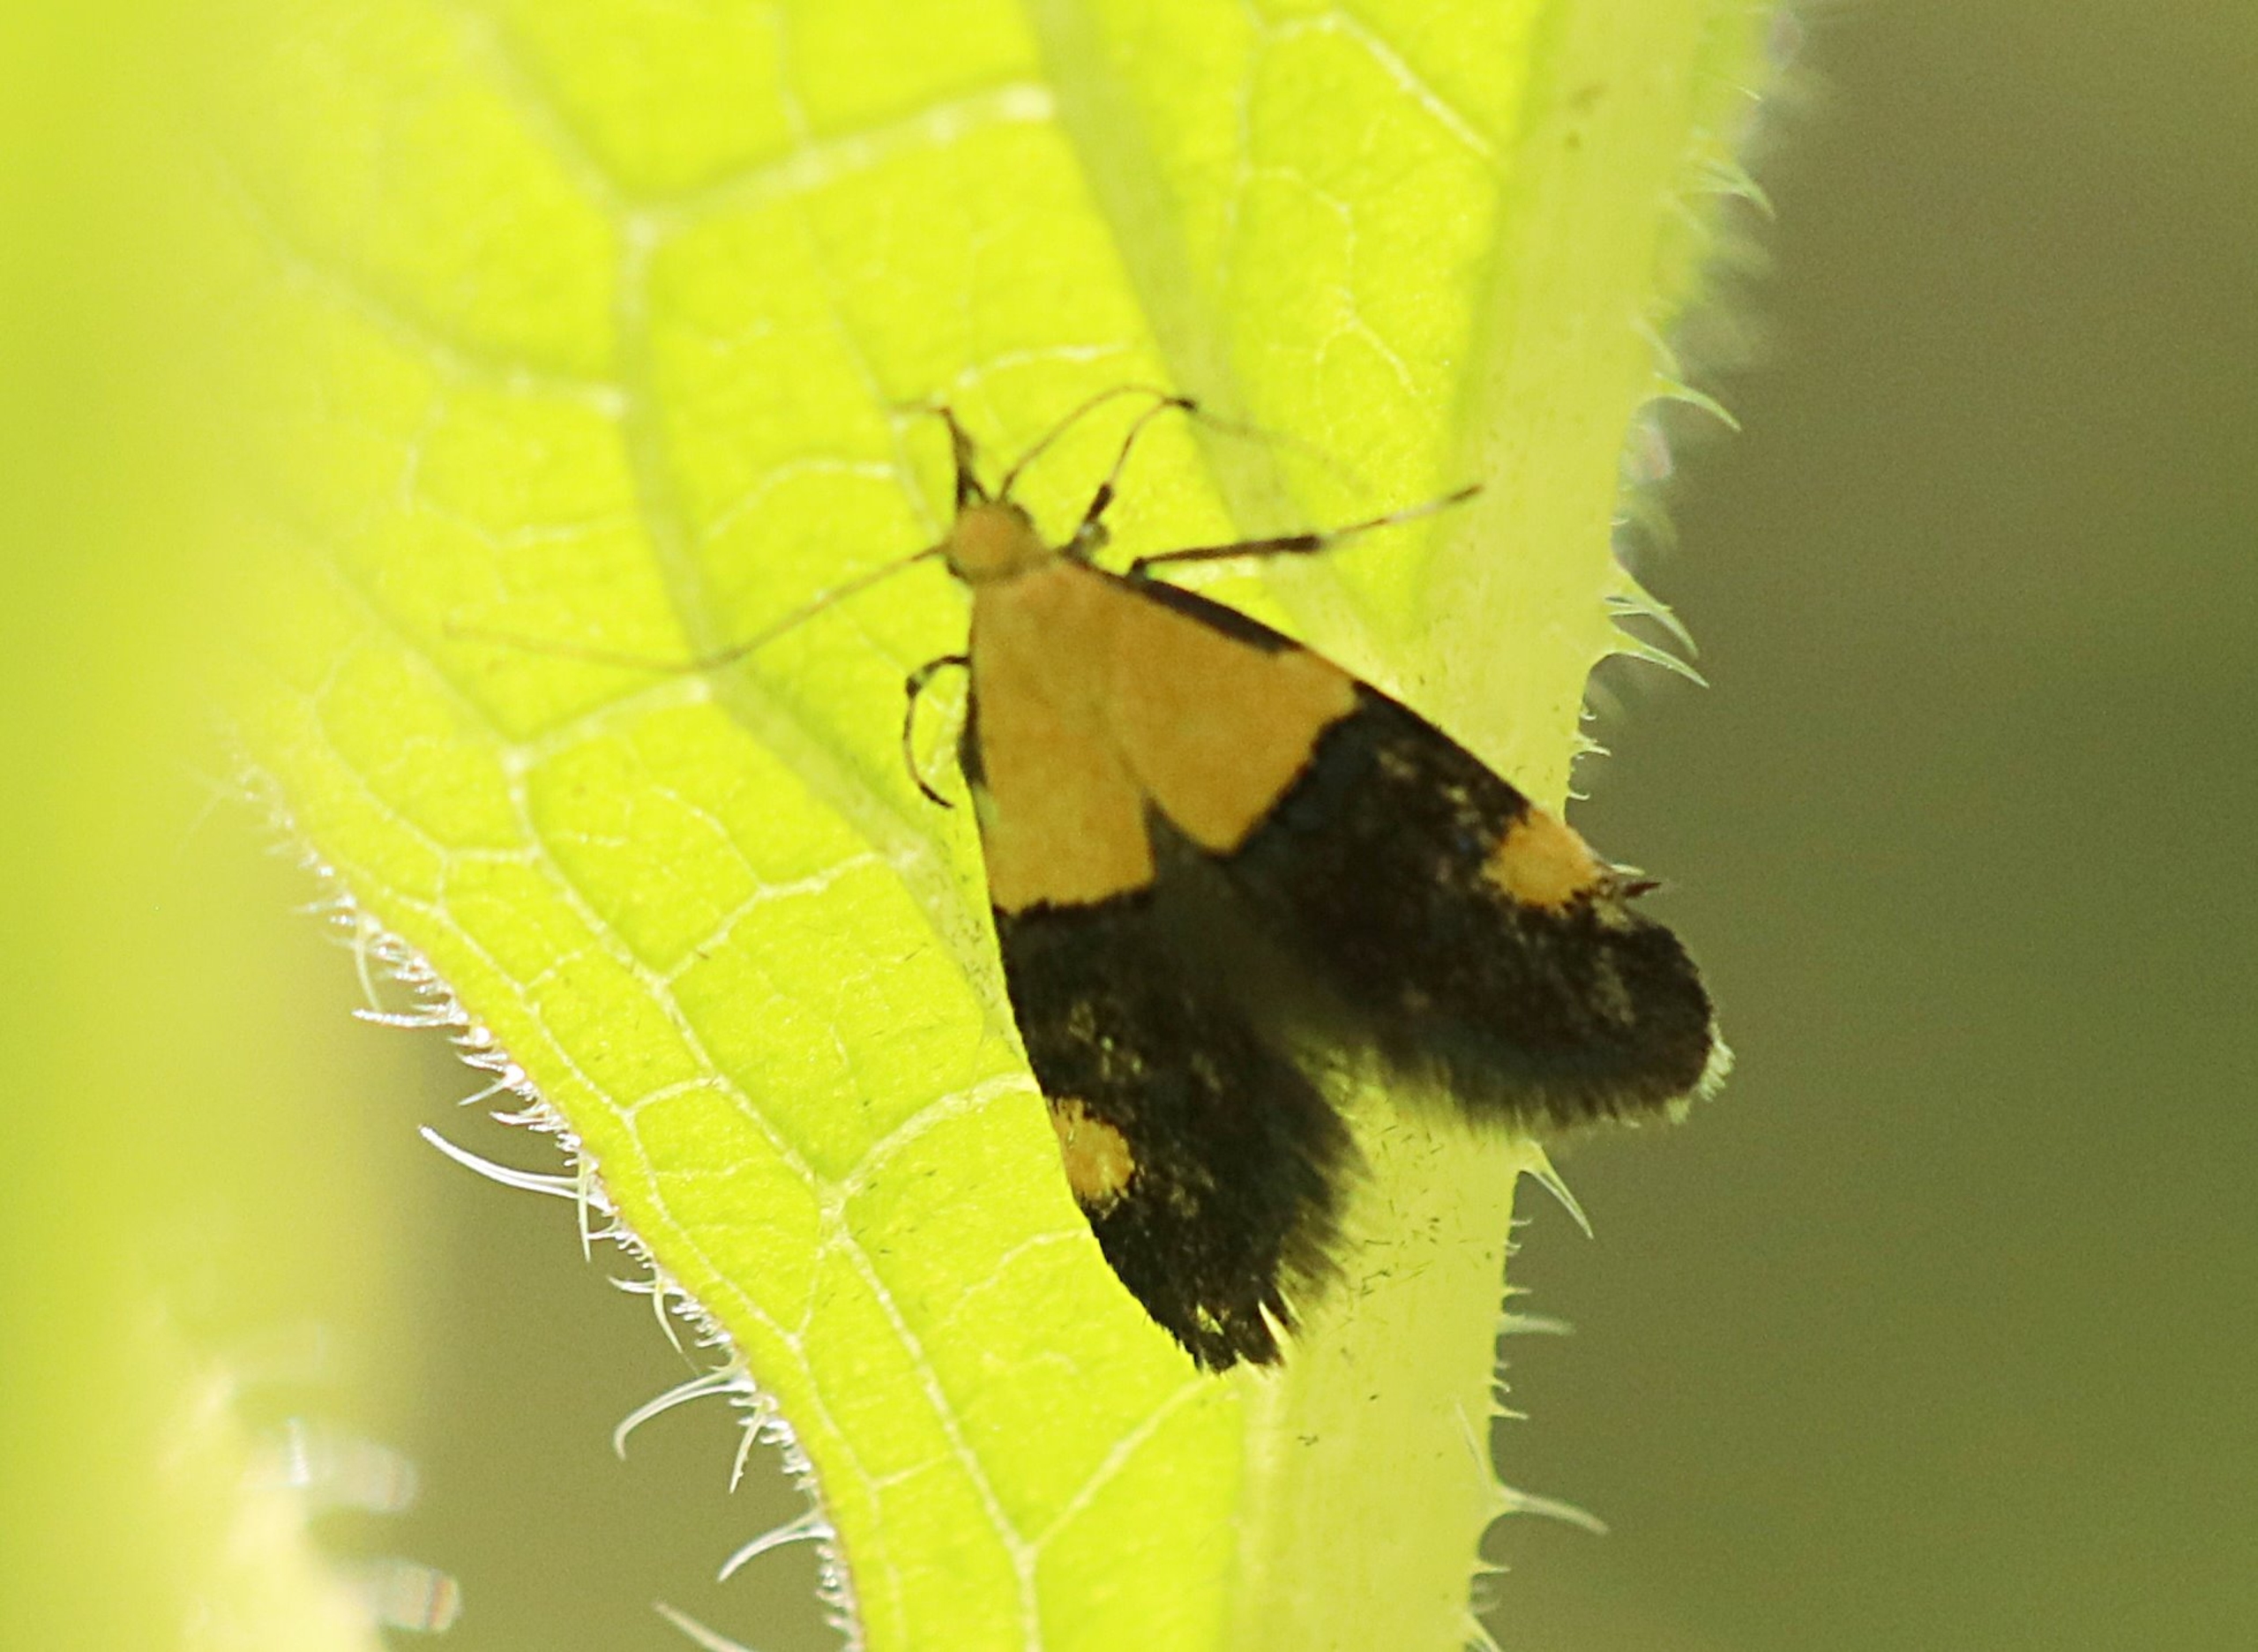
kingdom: Animalia
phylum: Arthropoda
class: Insecta
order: Lepidoptera
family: Oecophoridae
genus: Oecophora
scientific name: Oecophora bractella
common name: Tofarvet prydvinge
